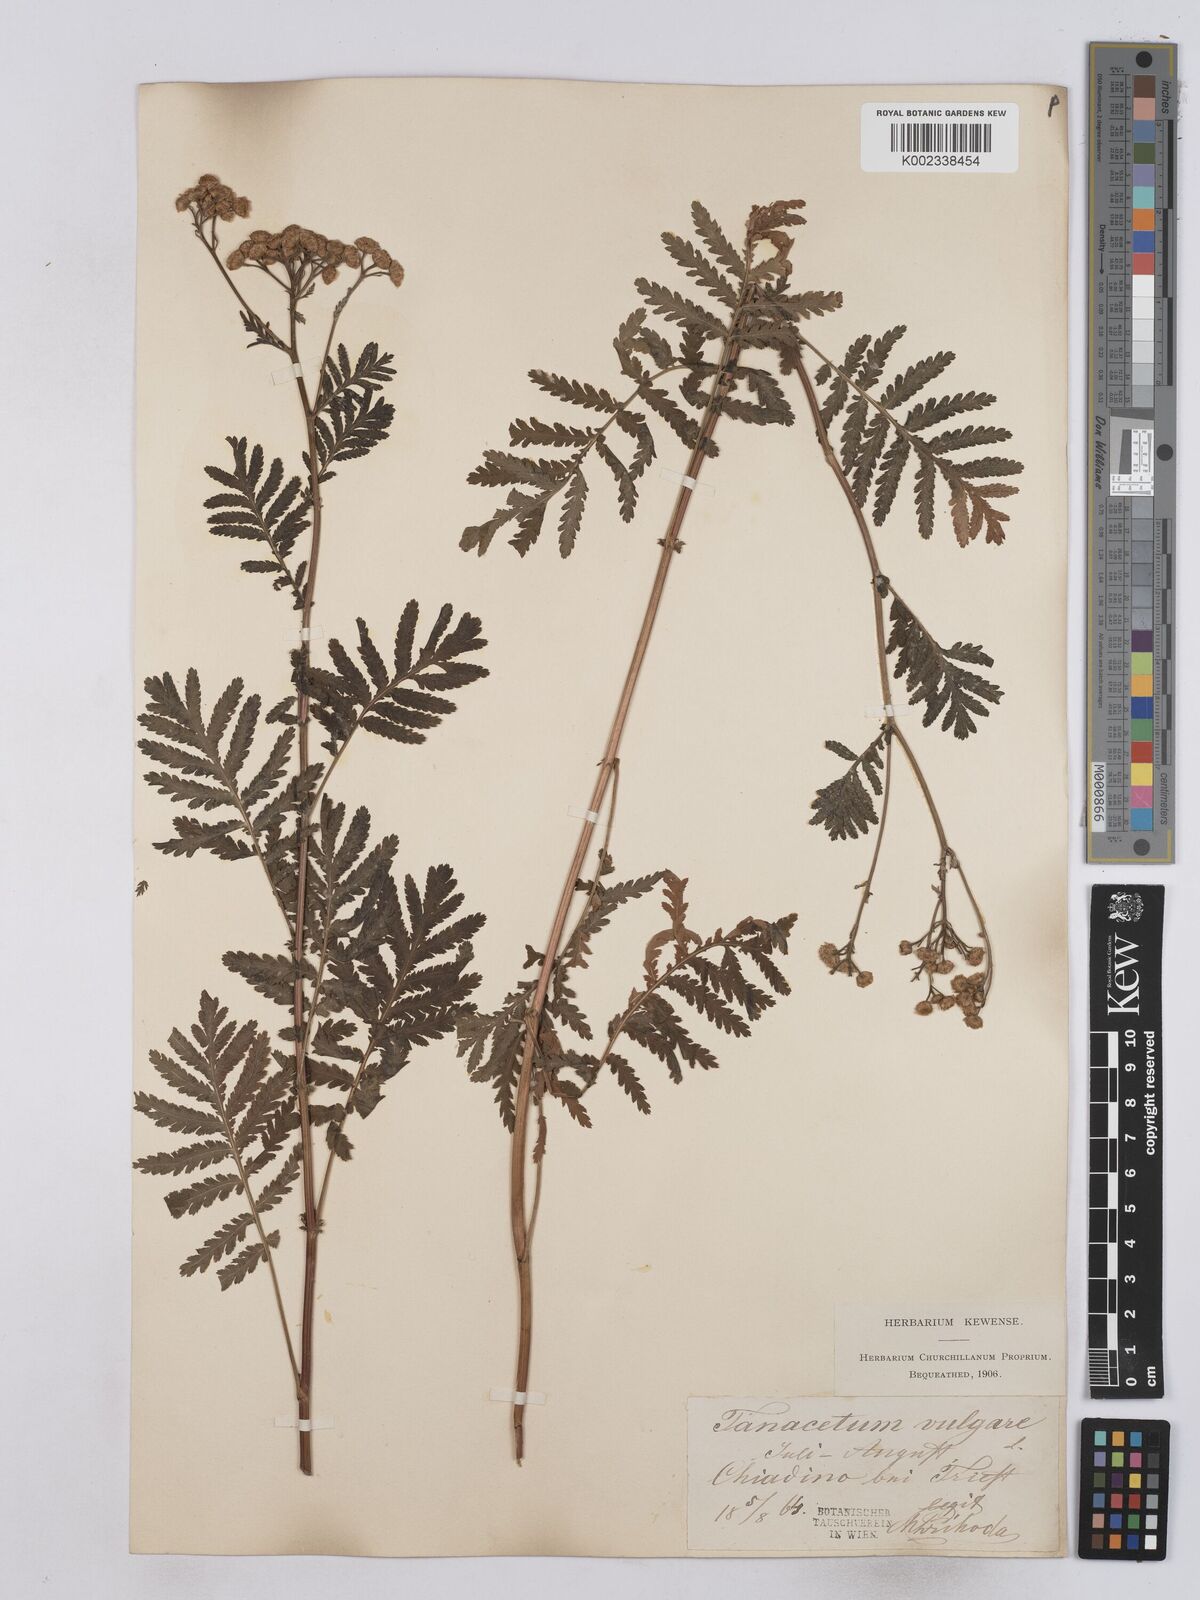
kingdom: Plantae
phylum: Tracheophyta
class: Magnoliopsida
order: Asterales
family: Asteraceae
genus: Tanacetum
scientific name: Tanacetum vulgare
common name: Common tansy
